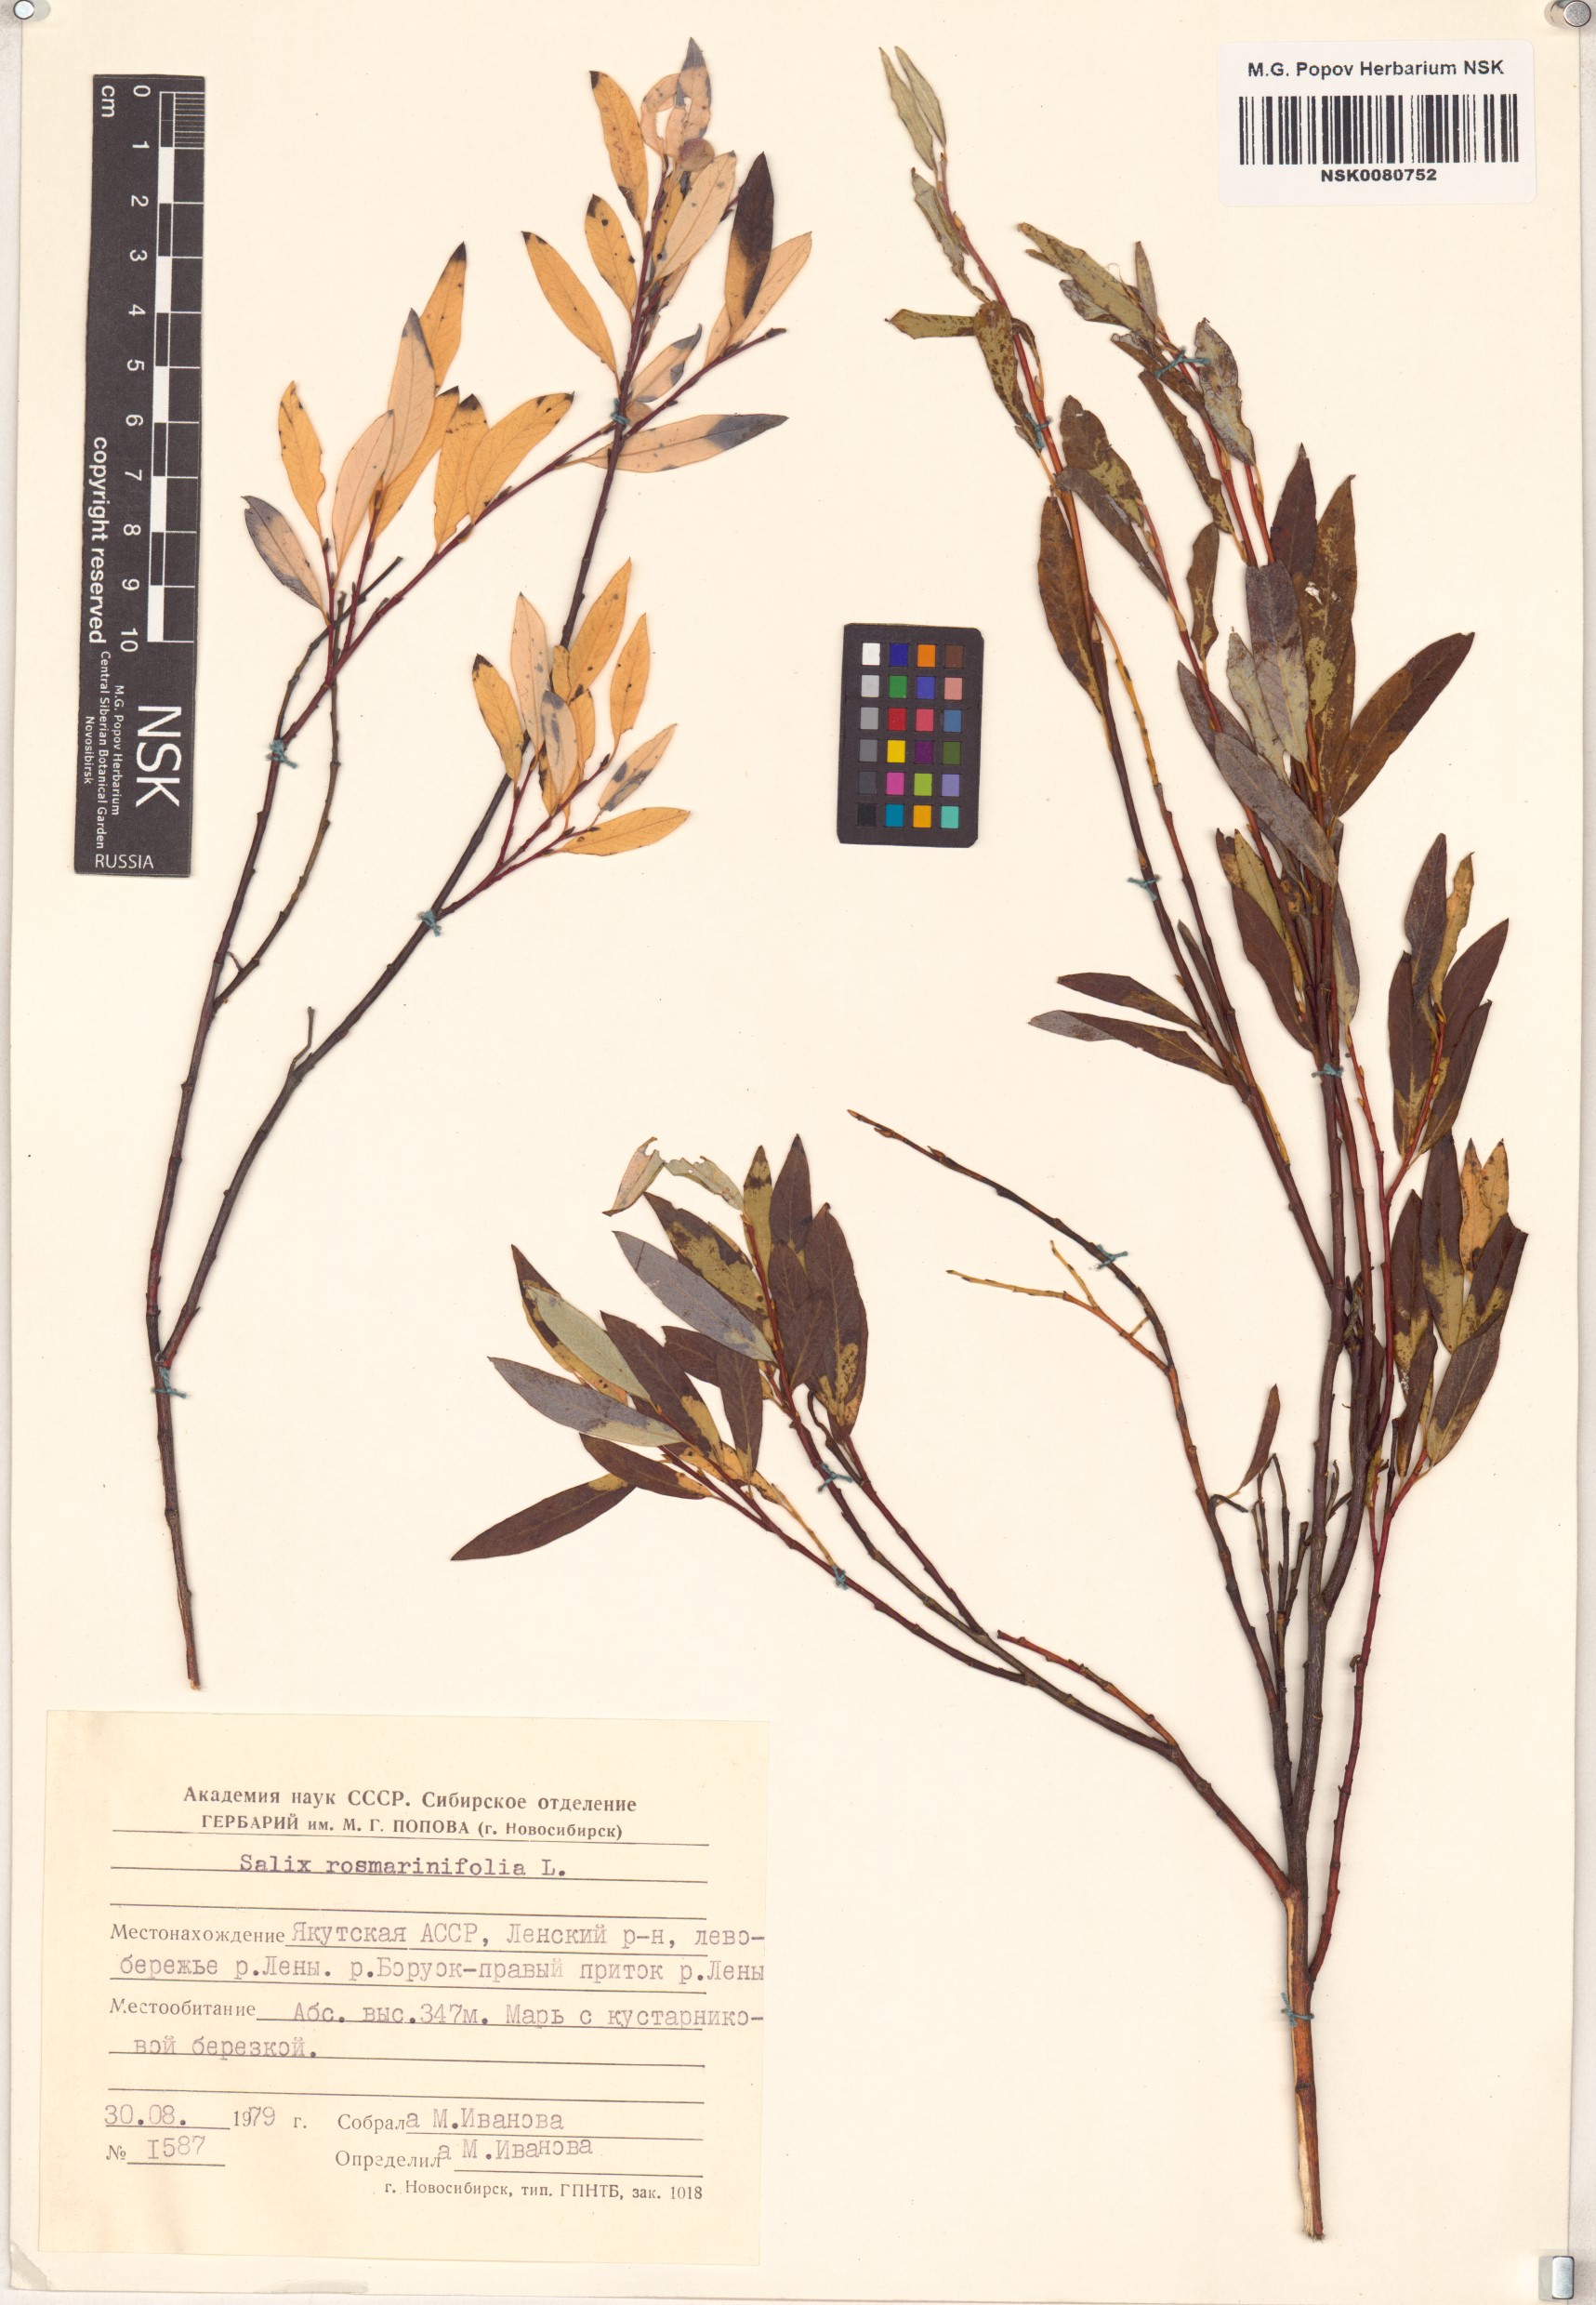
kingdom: Plantae
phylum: Tracheophyta
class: Magnoliopsida
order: Malpighiales
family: Salicaceae
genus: Salix
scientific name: Salix rosmarinifolia
